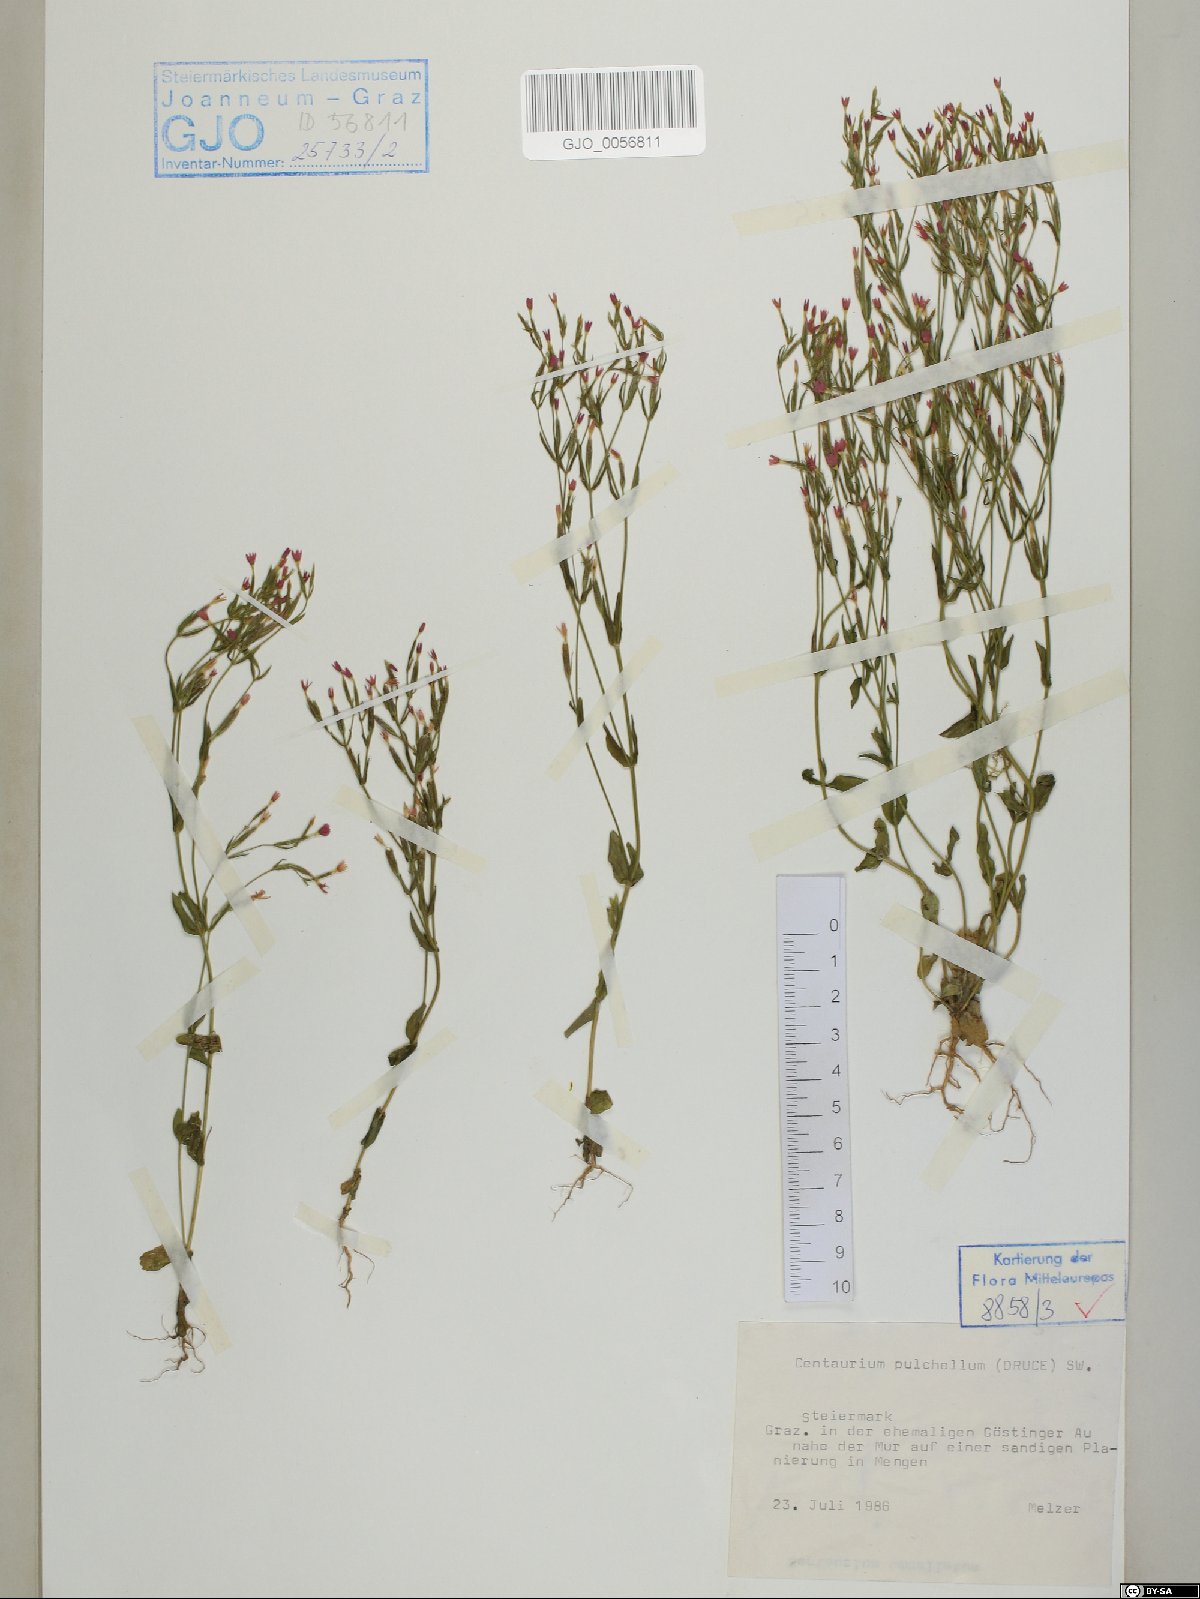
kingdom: Plantae
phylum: Tracheophyta
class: Magnoliopsida
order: Gentianales
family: Gentianaceae
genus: Centaurium
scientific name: Centaurium pulchellum
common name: Lesser centaury
